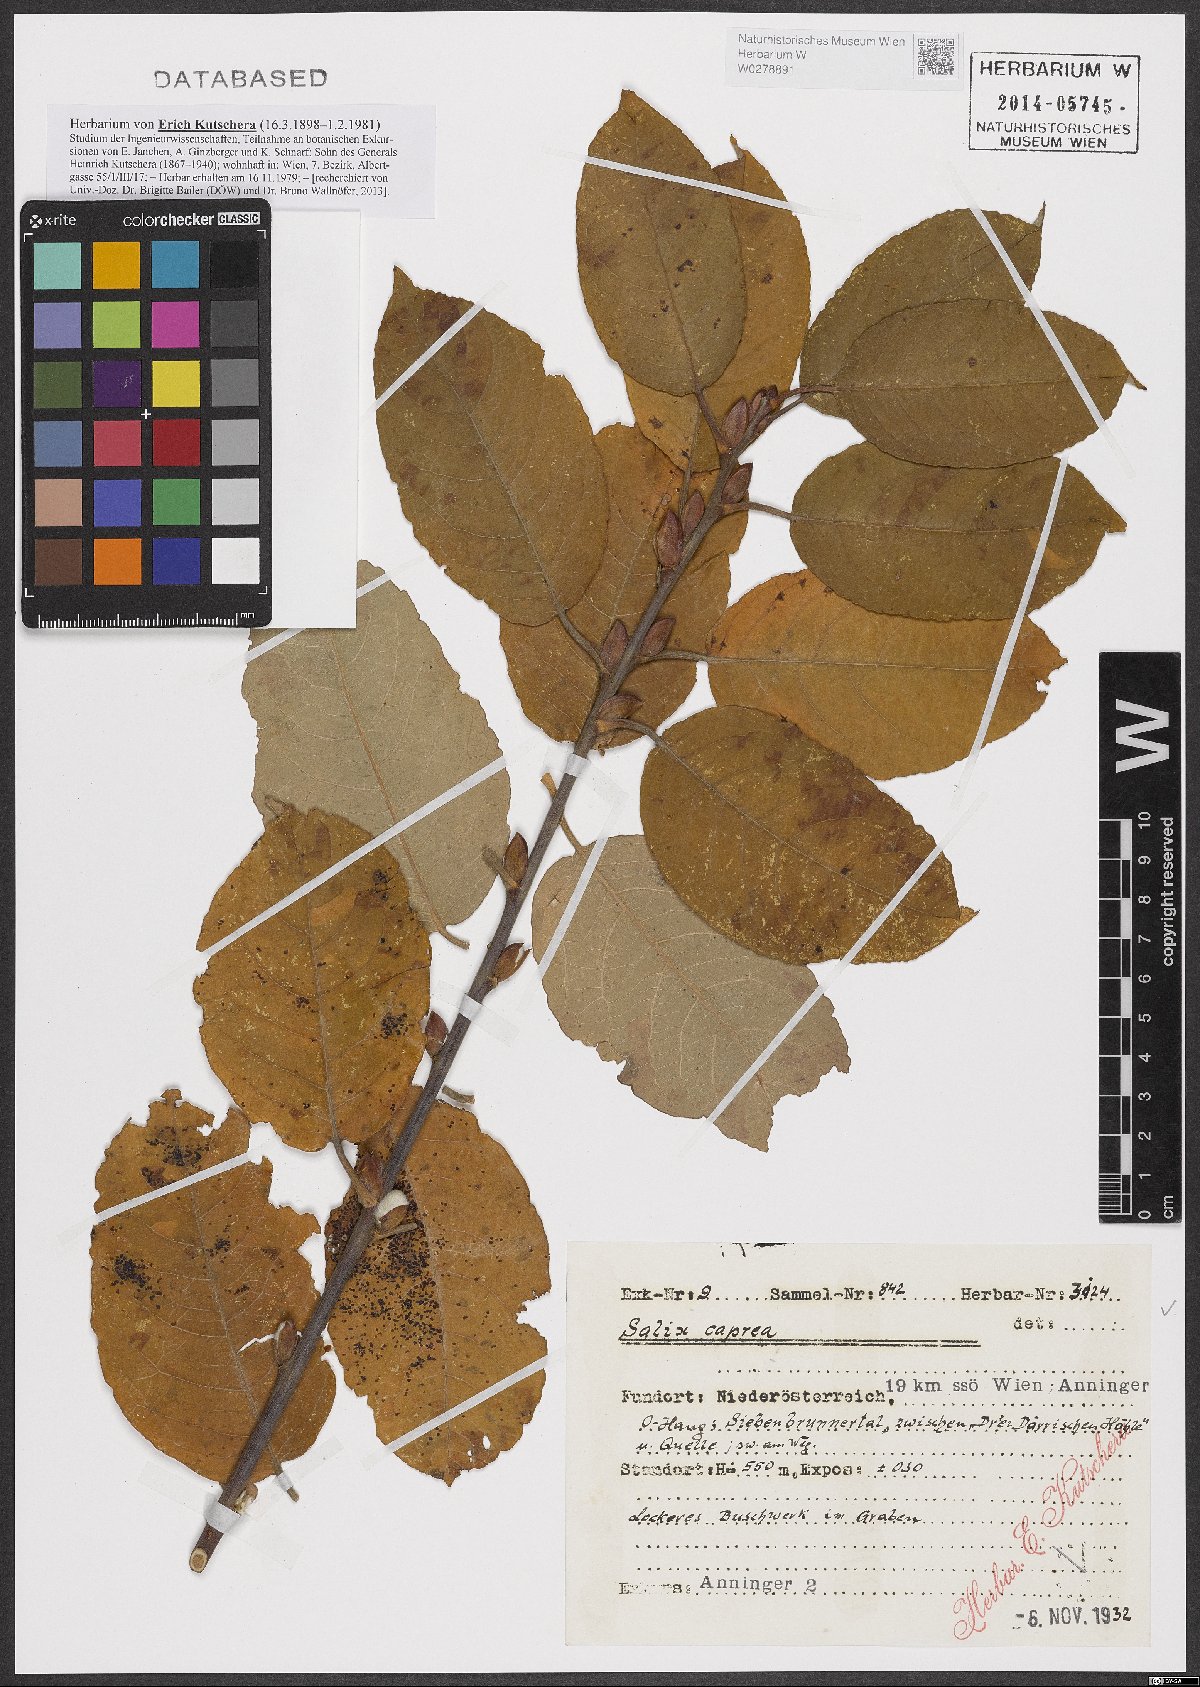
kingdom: Plantae
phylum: Tracheophyta
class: Magnoliopsida
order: Malpighiales
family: Salicaceae
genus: Salix
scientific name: Salix caprea
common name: Goat willow
